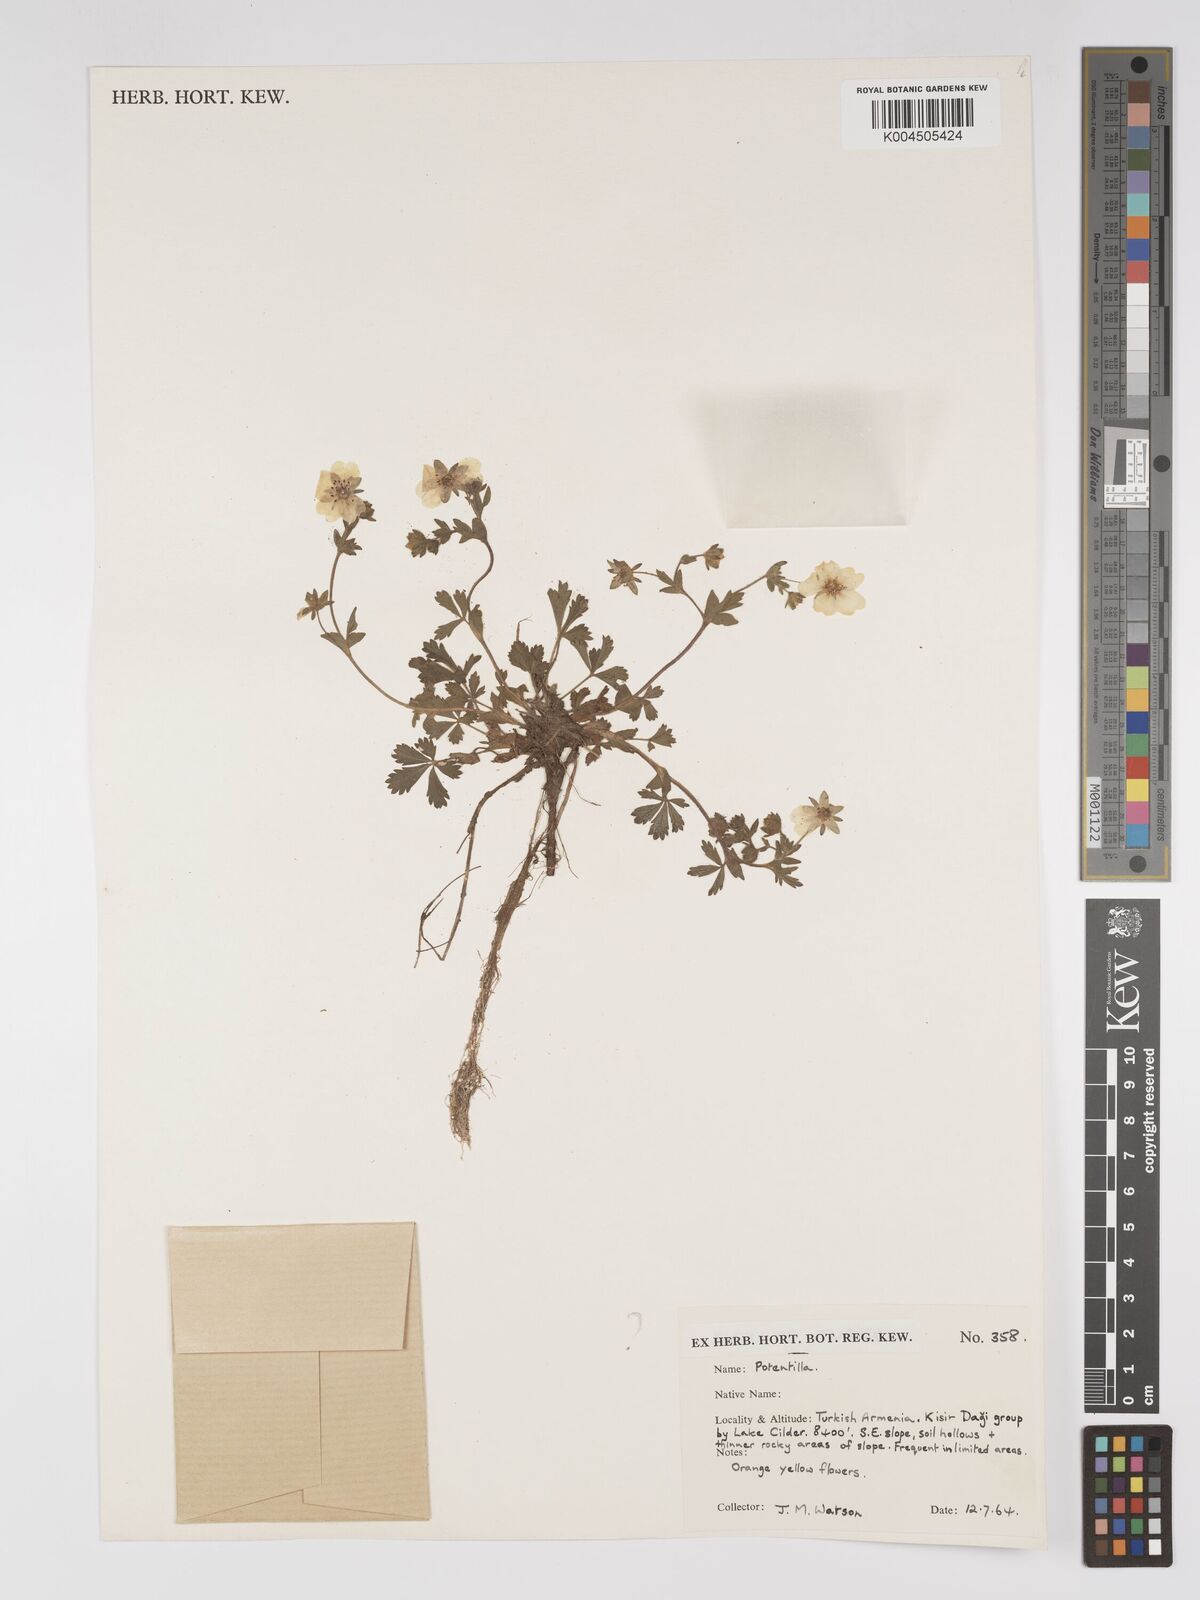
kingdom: Plantae
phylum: Tracheophyta
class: Magnoliopsida
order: Rosales
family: Rosaceae
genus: Potentilla
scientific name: Potentilla
